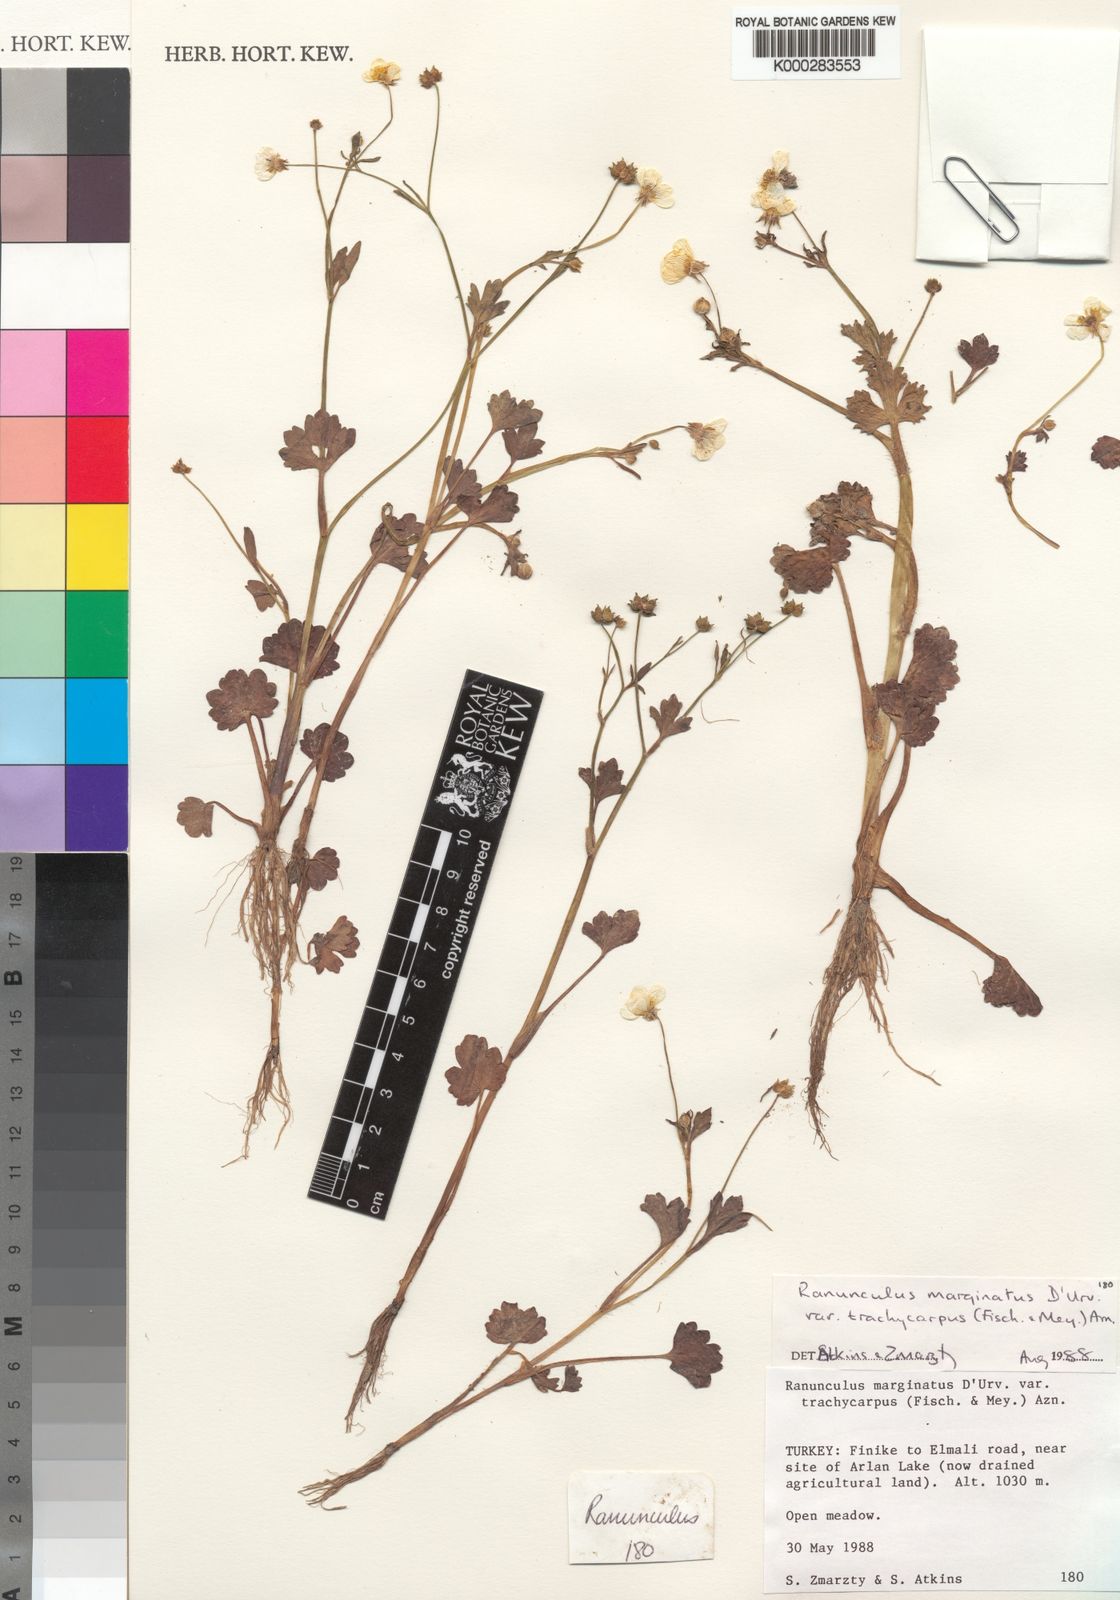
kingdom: Plantae
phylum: Tracheophyta
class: Magnoliopsida
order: Ranunculales
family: Ranunculaceae
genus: Ranunculus
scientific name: Ranunculus marginatus
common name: St. martin's buttercup
